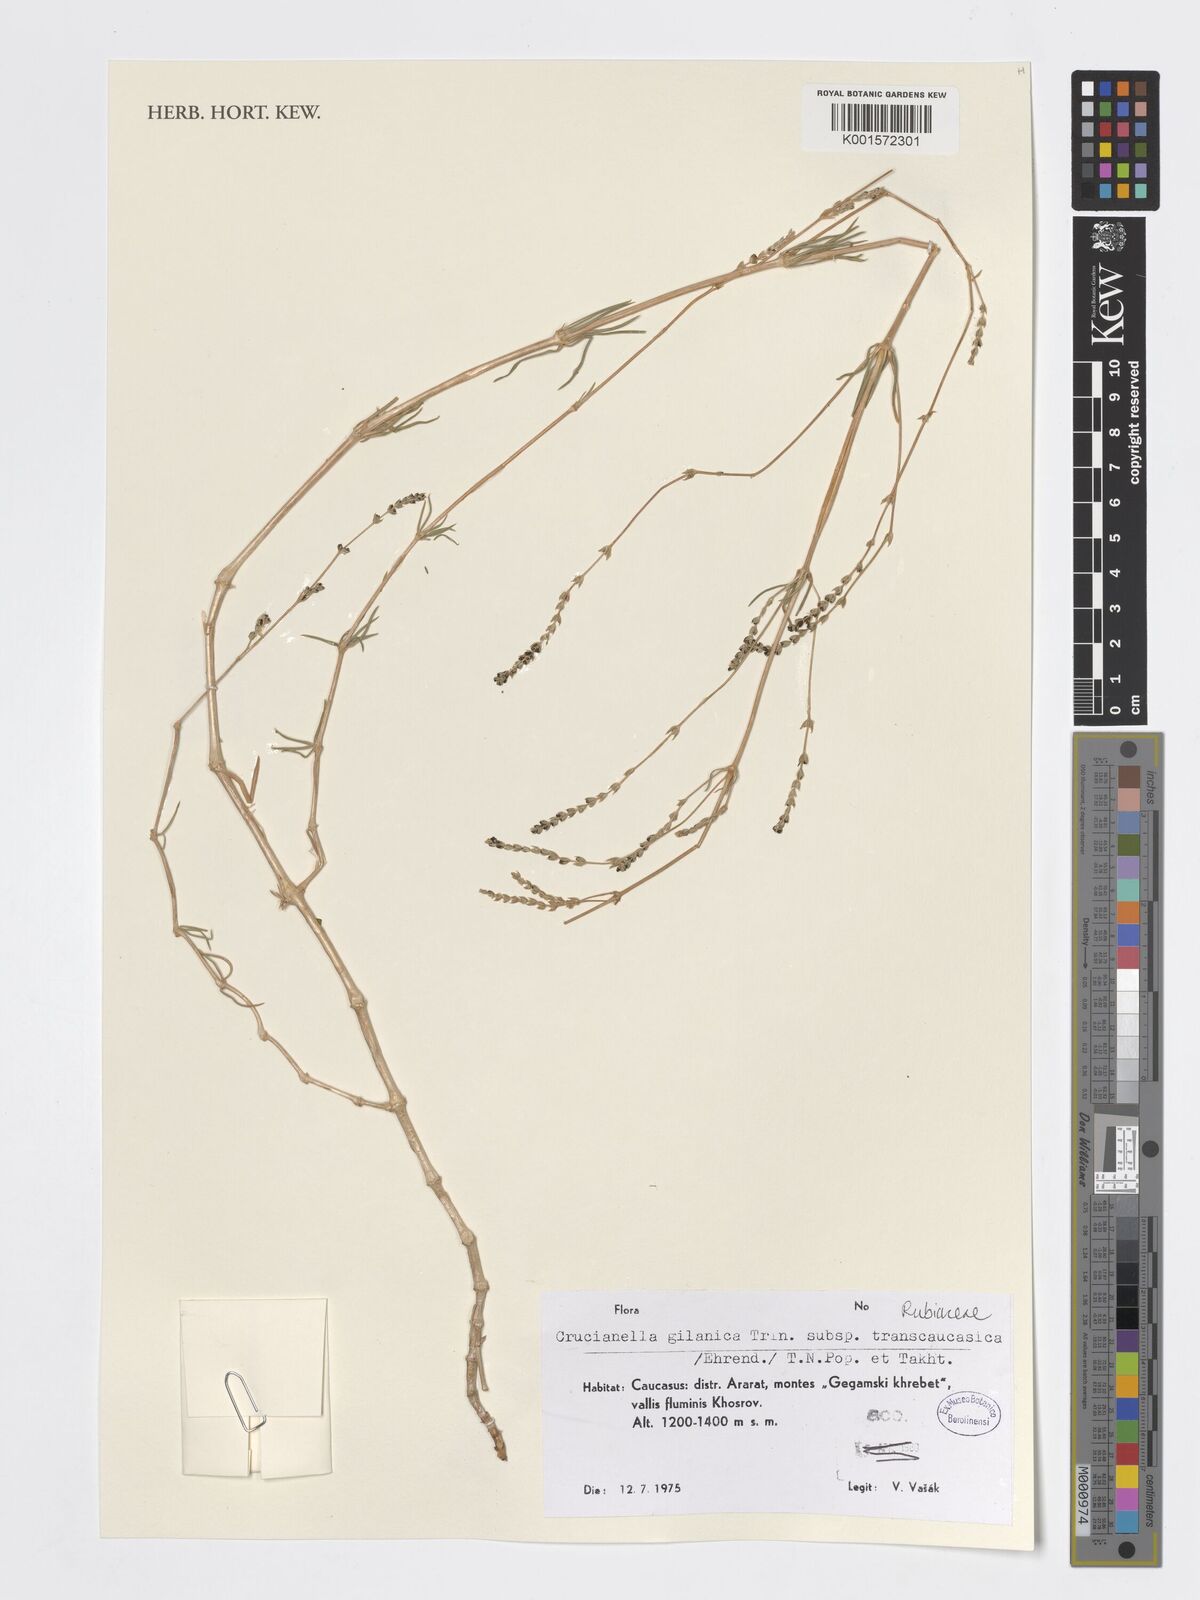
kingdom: Plantae
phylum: Tracheophyta
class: Magnoliopsida
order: Gentianales
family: Rubiaceae
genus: Crucianella
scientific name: Crucianella gilanica
